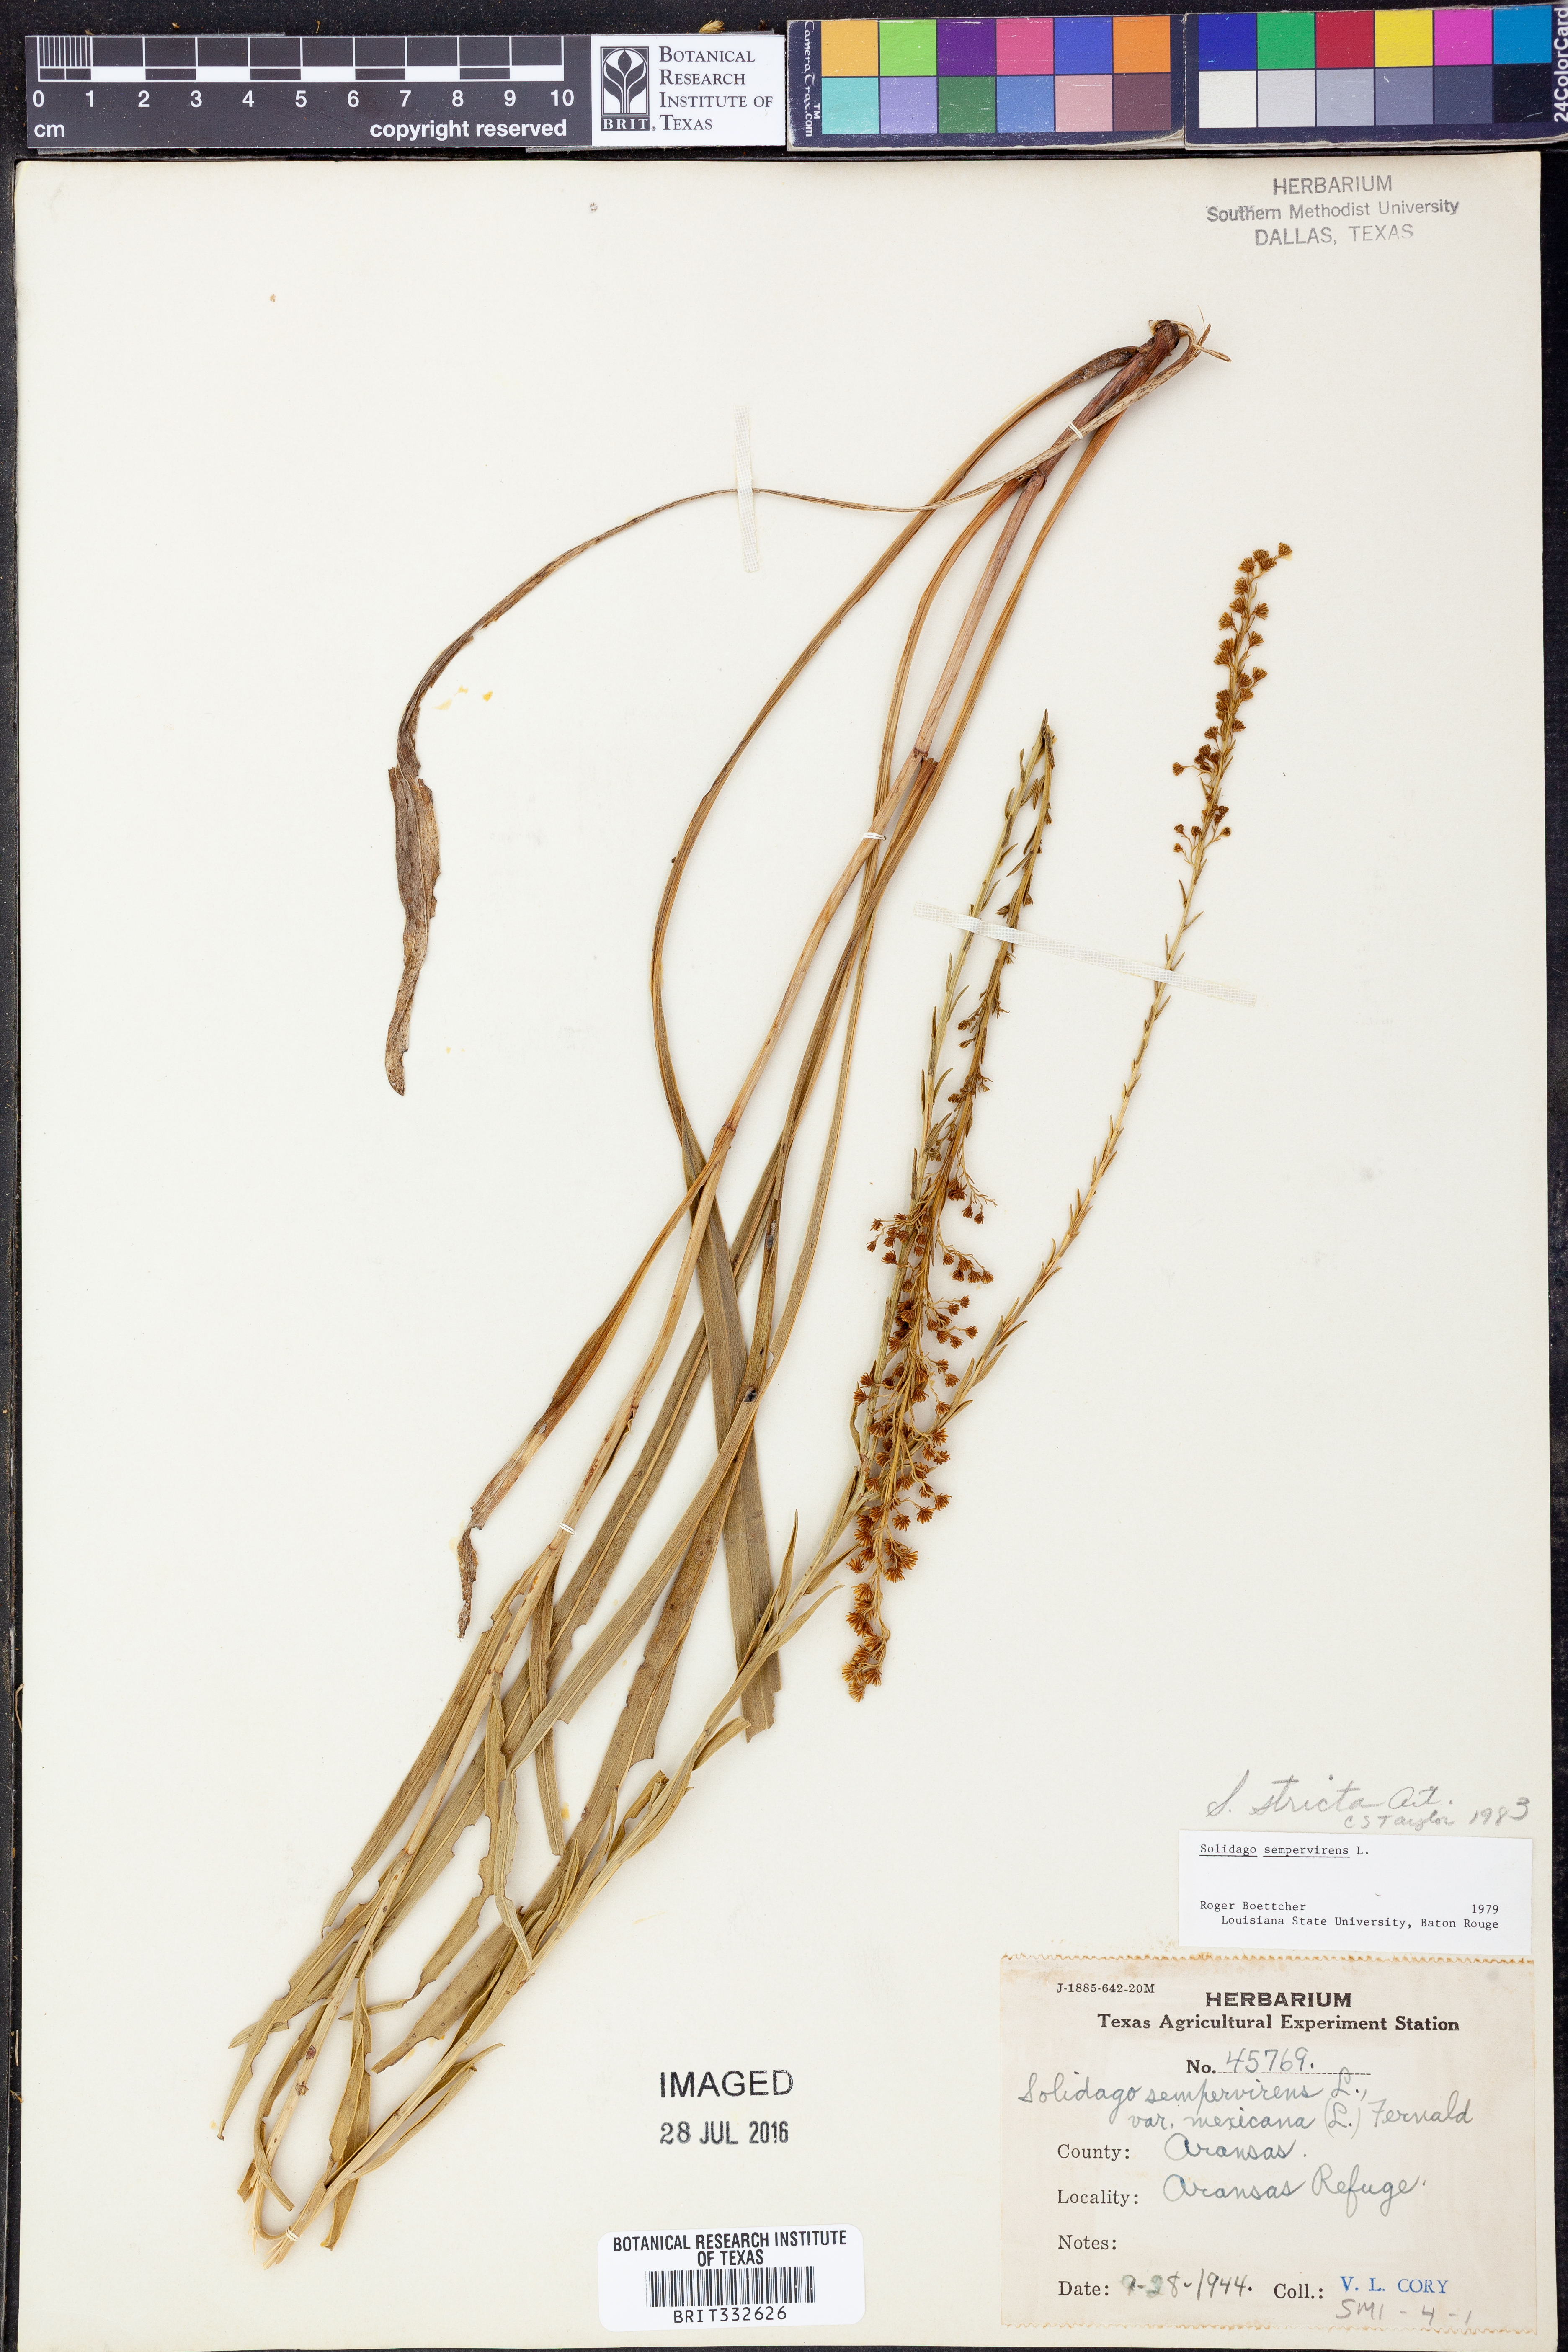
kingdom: Plantae
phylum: Tracheophyta
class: Magnoliopsida
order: Asterales
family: Asteraceae
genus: Solidago
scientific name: Solidago stricta
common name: Pine barren bog goldenrod
